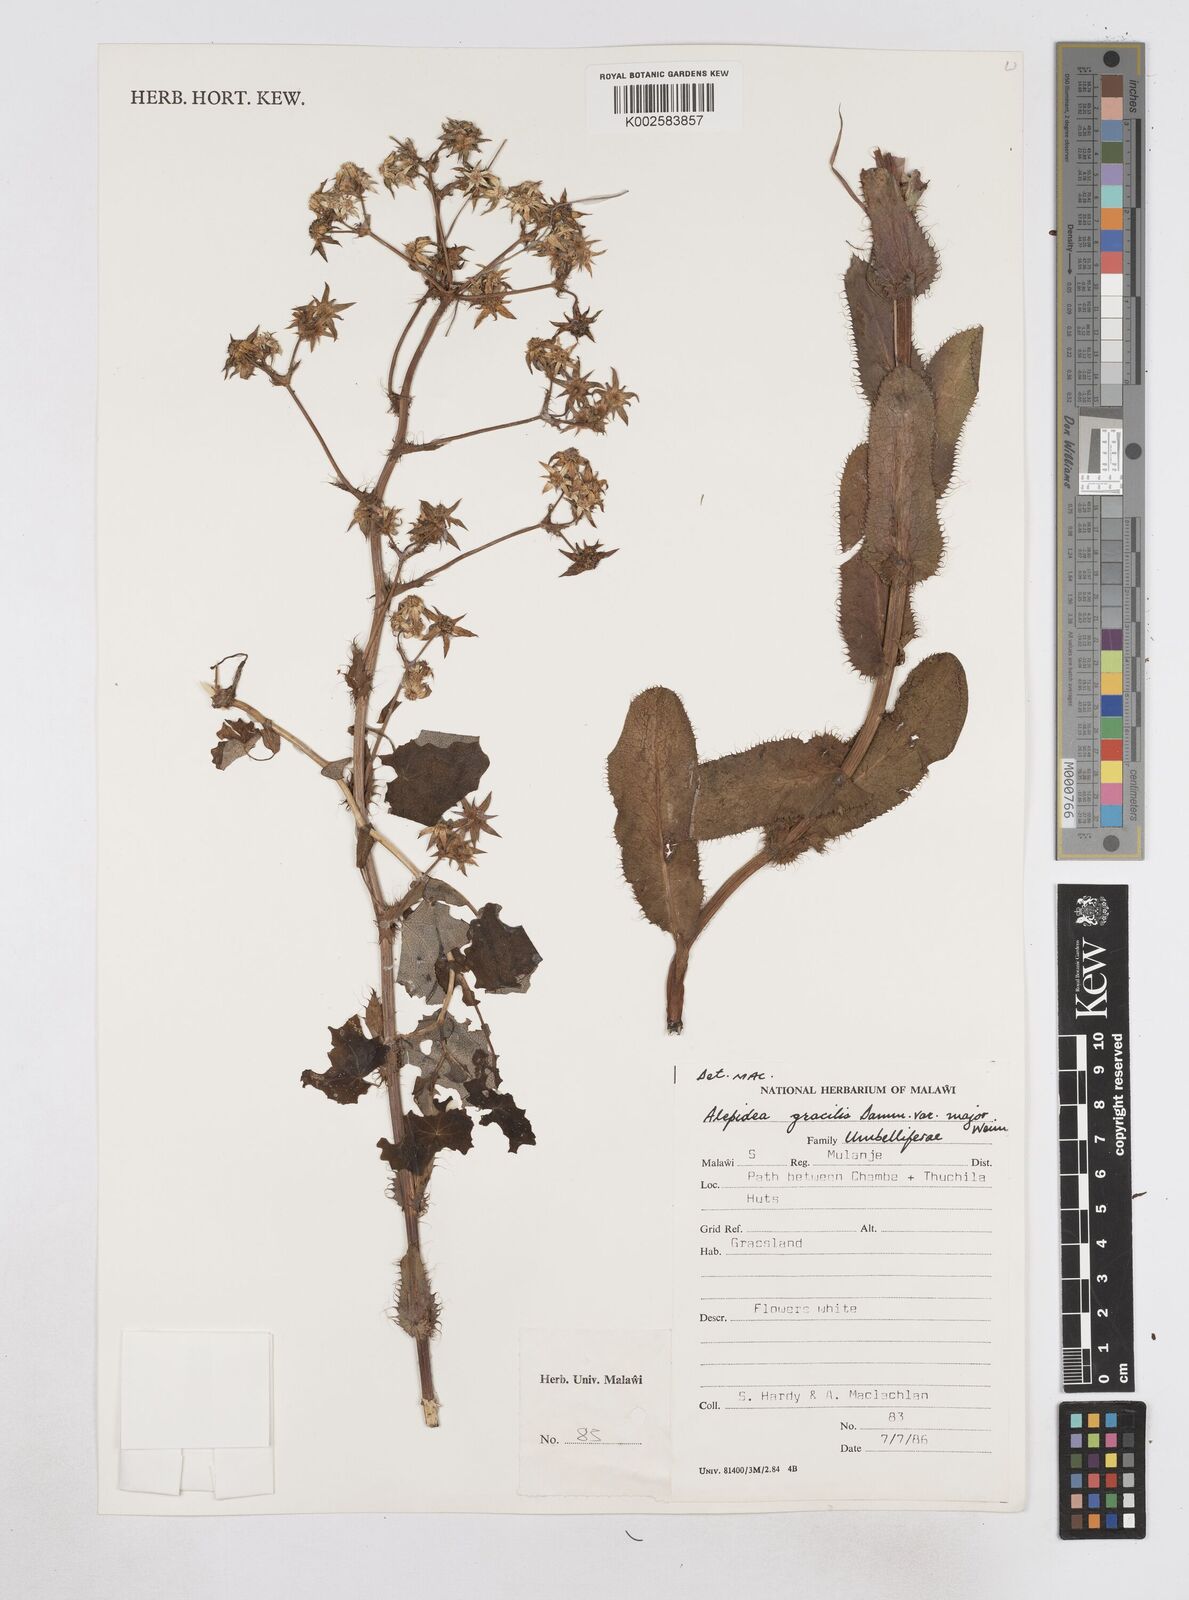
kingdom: Plantae
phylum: Tracheophyta
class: Magnoliopsida
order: Apiales
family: Apiaceae
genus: Alepidea
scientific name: Alepidea peduncularis
